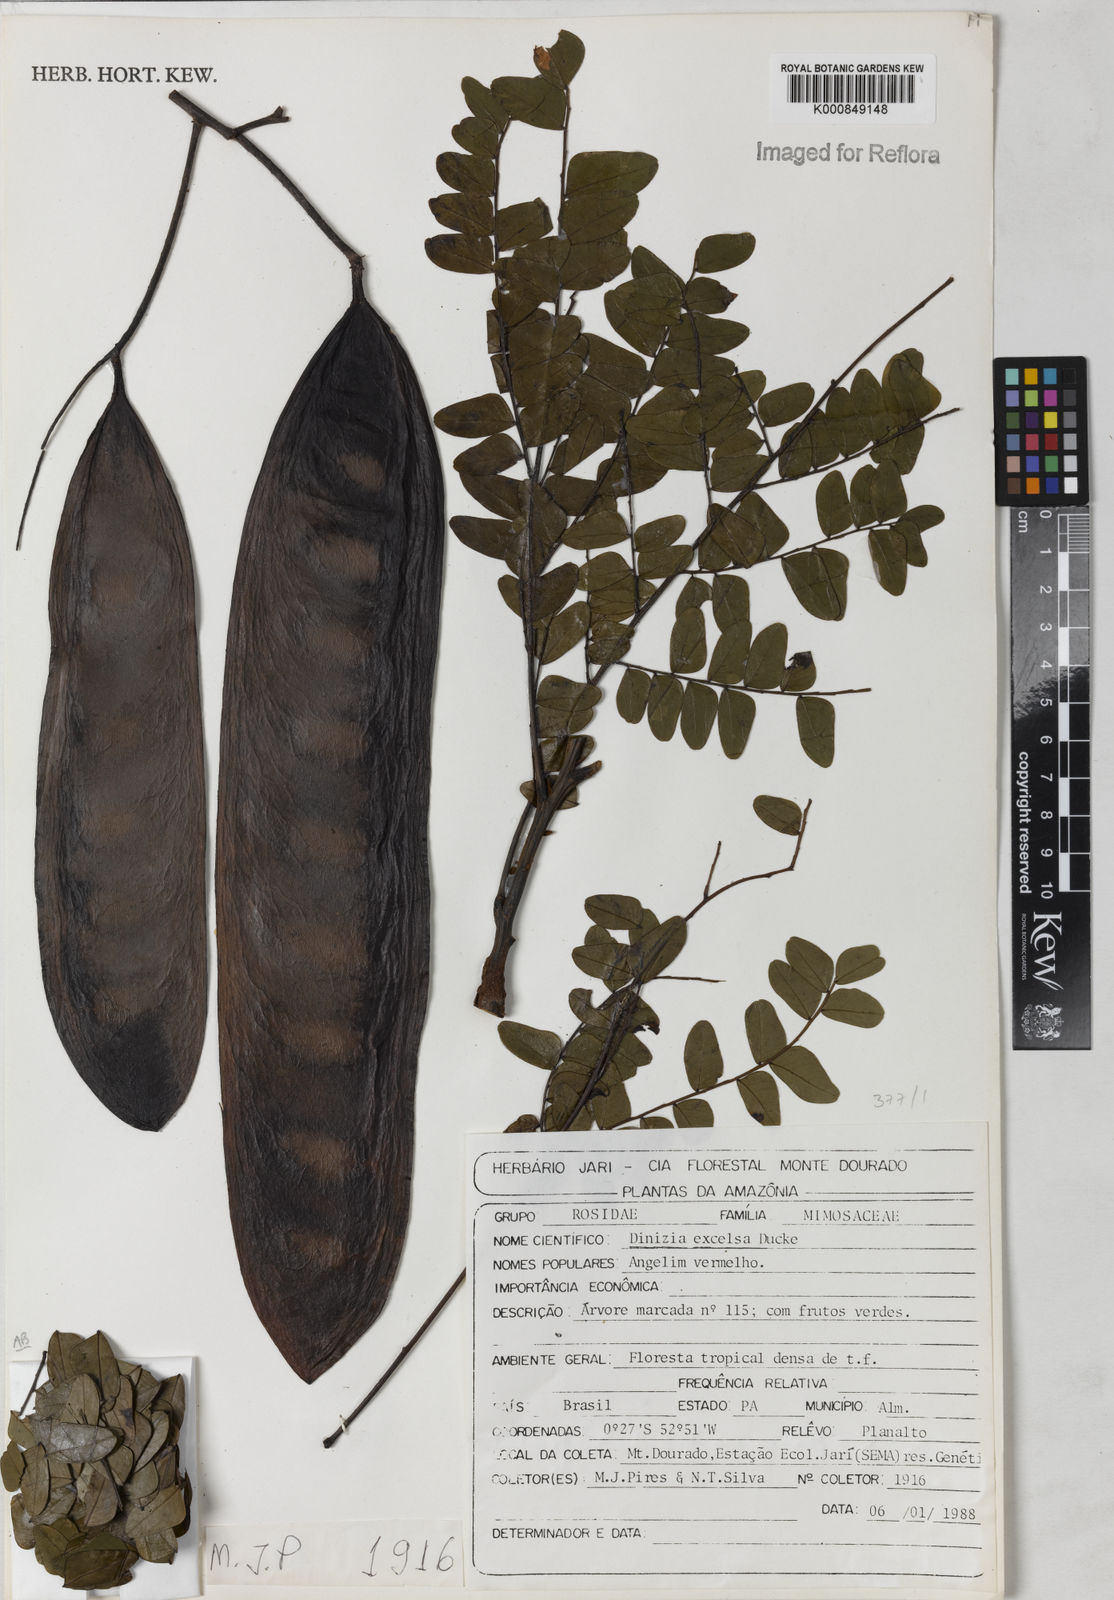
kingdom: Plantae
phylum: Tracheophyta
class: Magnoliopsida
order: Fabales
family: Fabaceae
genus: Dinizia
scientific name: Dinizia excelsa
